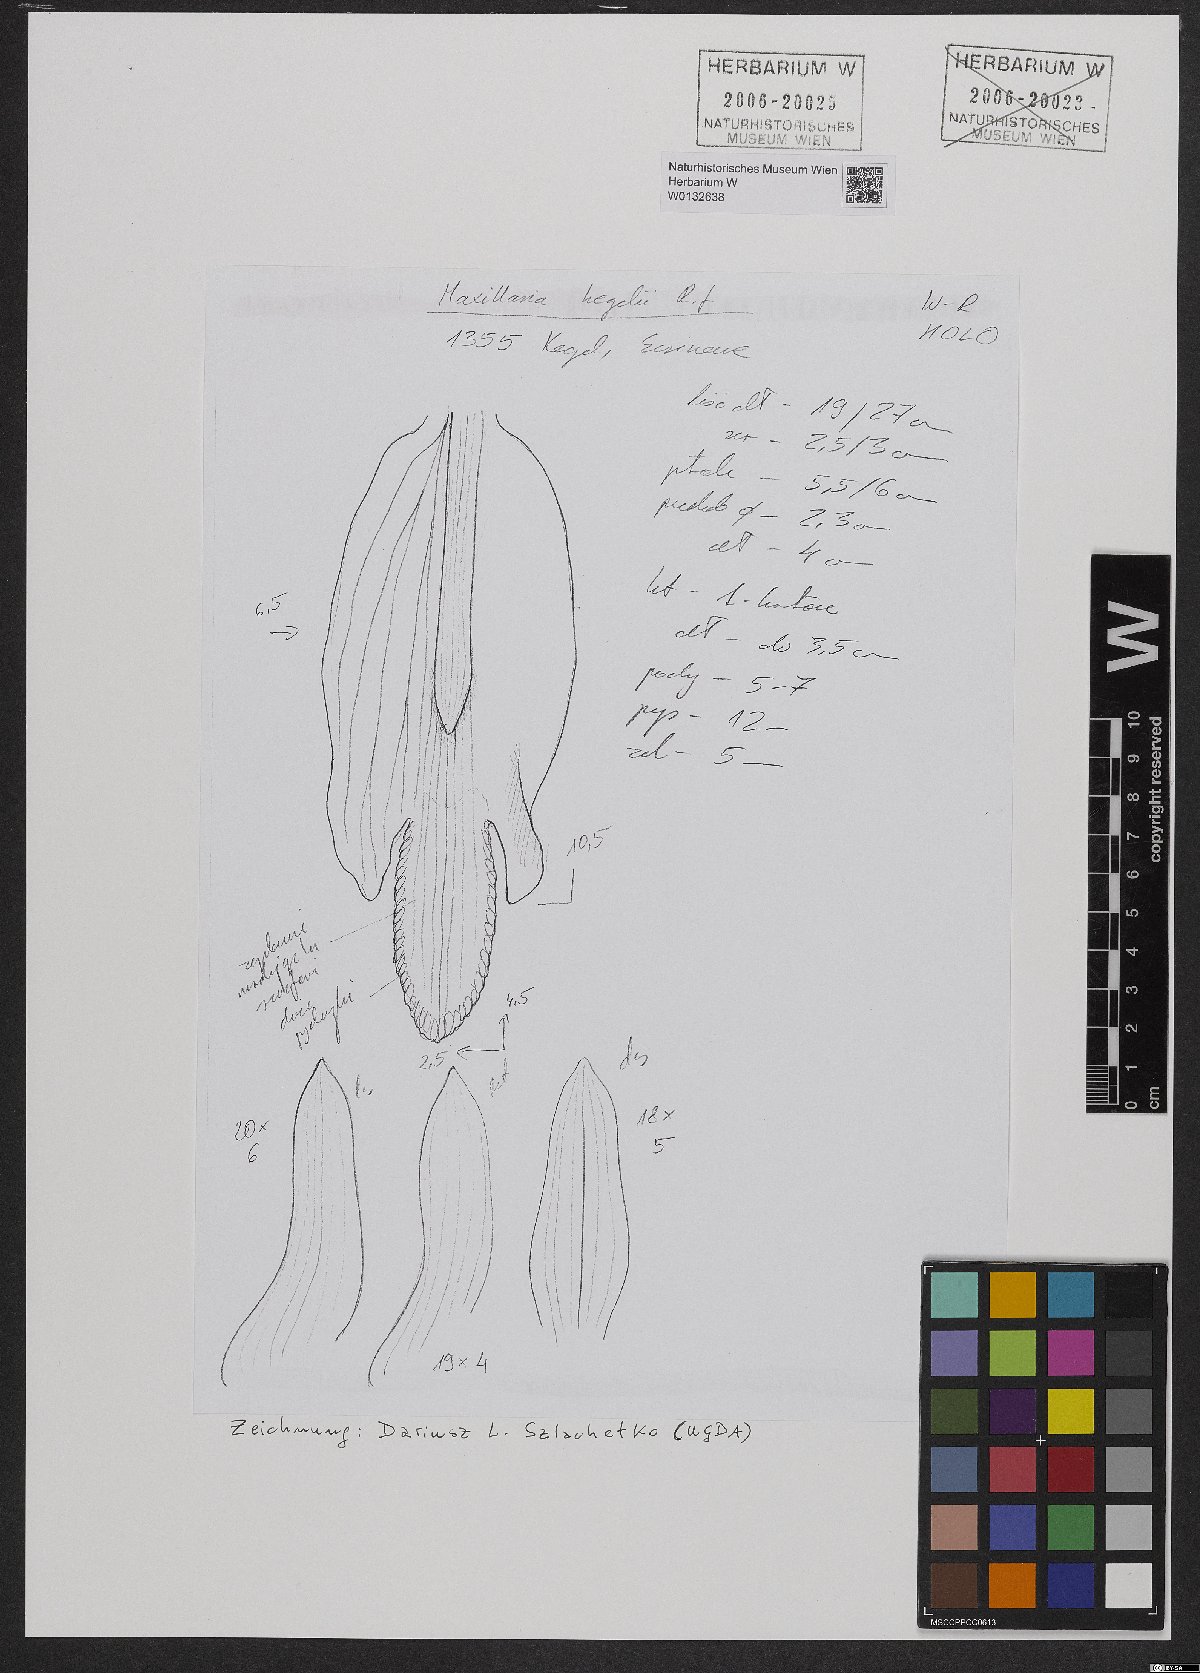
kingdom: Plantae
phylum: Tracheophyta
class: Liliopsida
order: Asparagales
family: Orchidaceae
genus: Maxillaria
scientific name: Maxillaria kegelii
